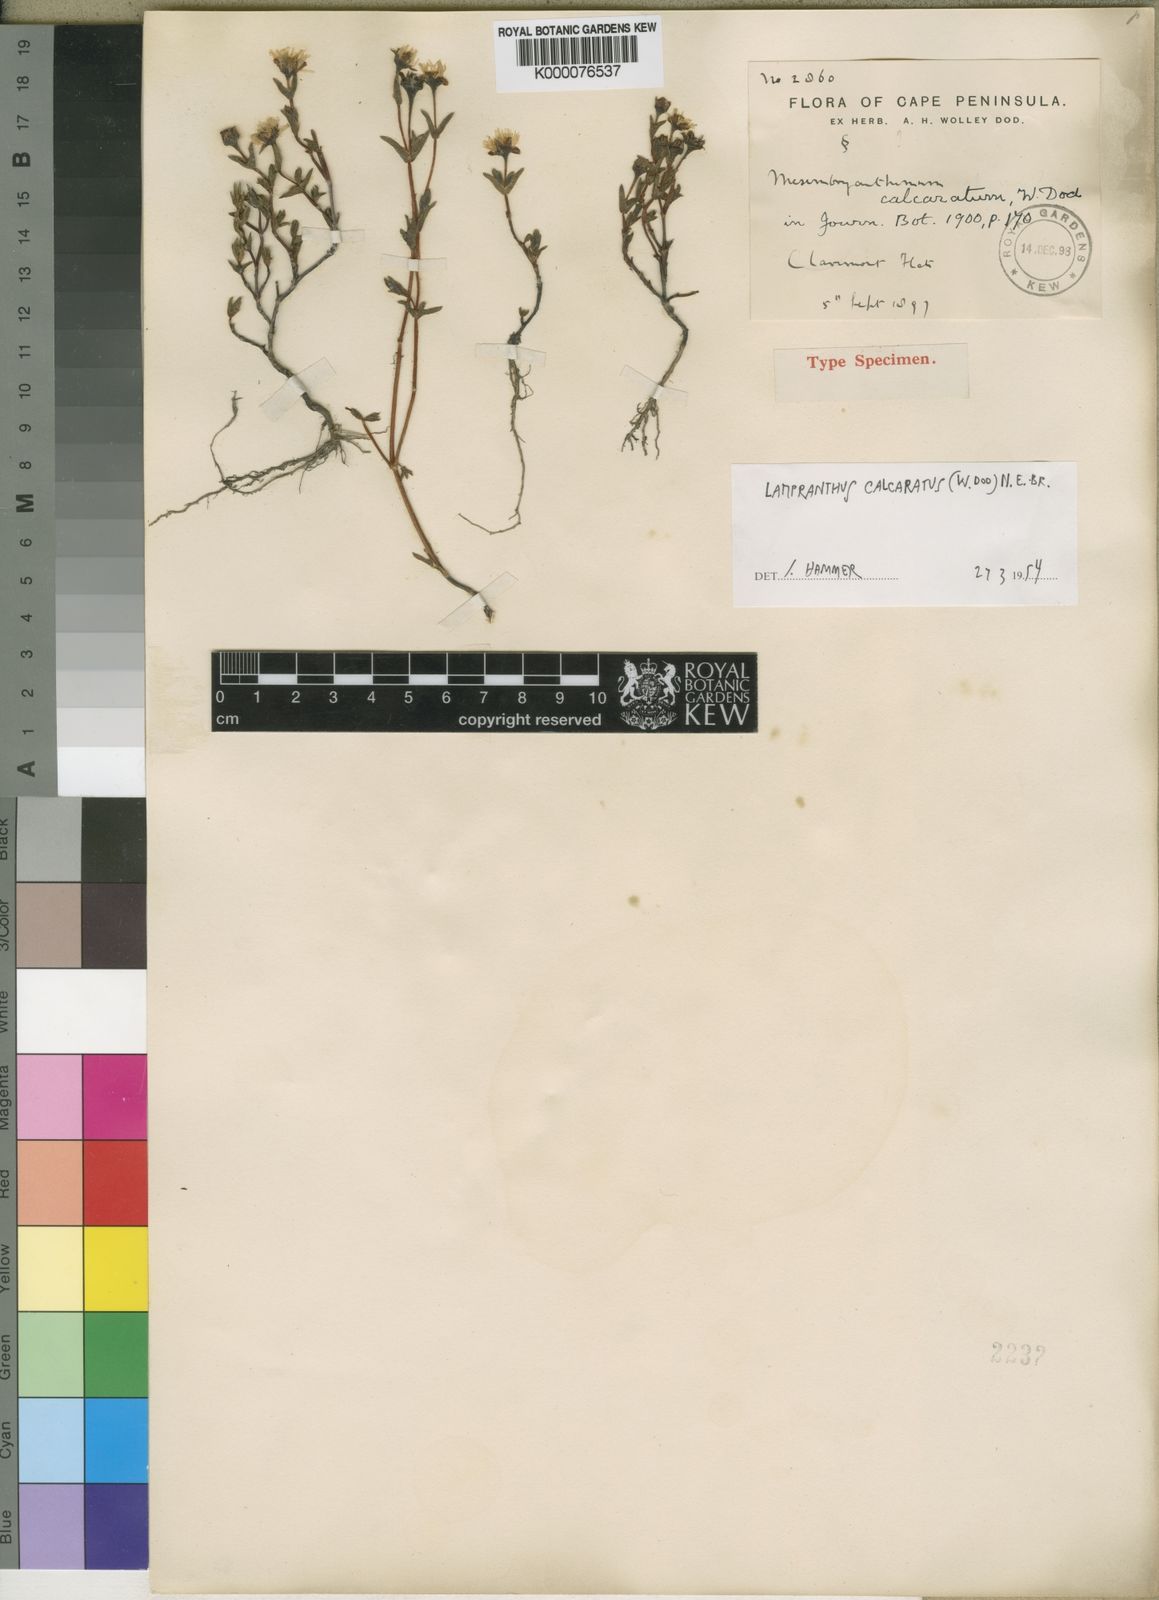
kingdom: Plantae
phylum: Tracheophyta
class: Magnoliopsida
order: Caryophyllales
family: Aizoaceae
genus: Lampranthus
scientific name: Lampranthus calcaratus
